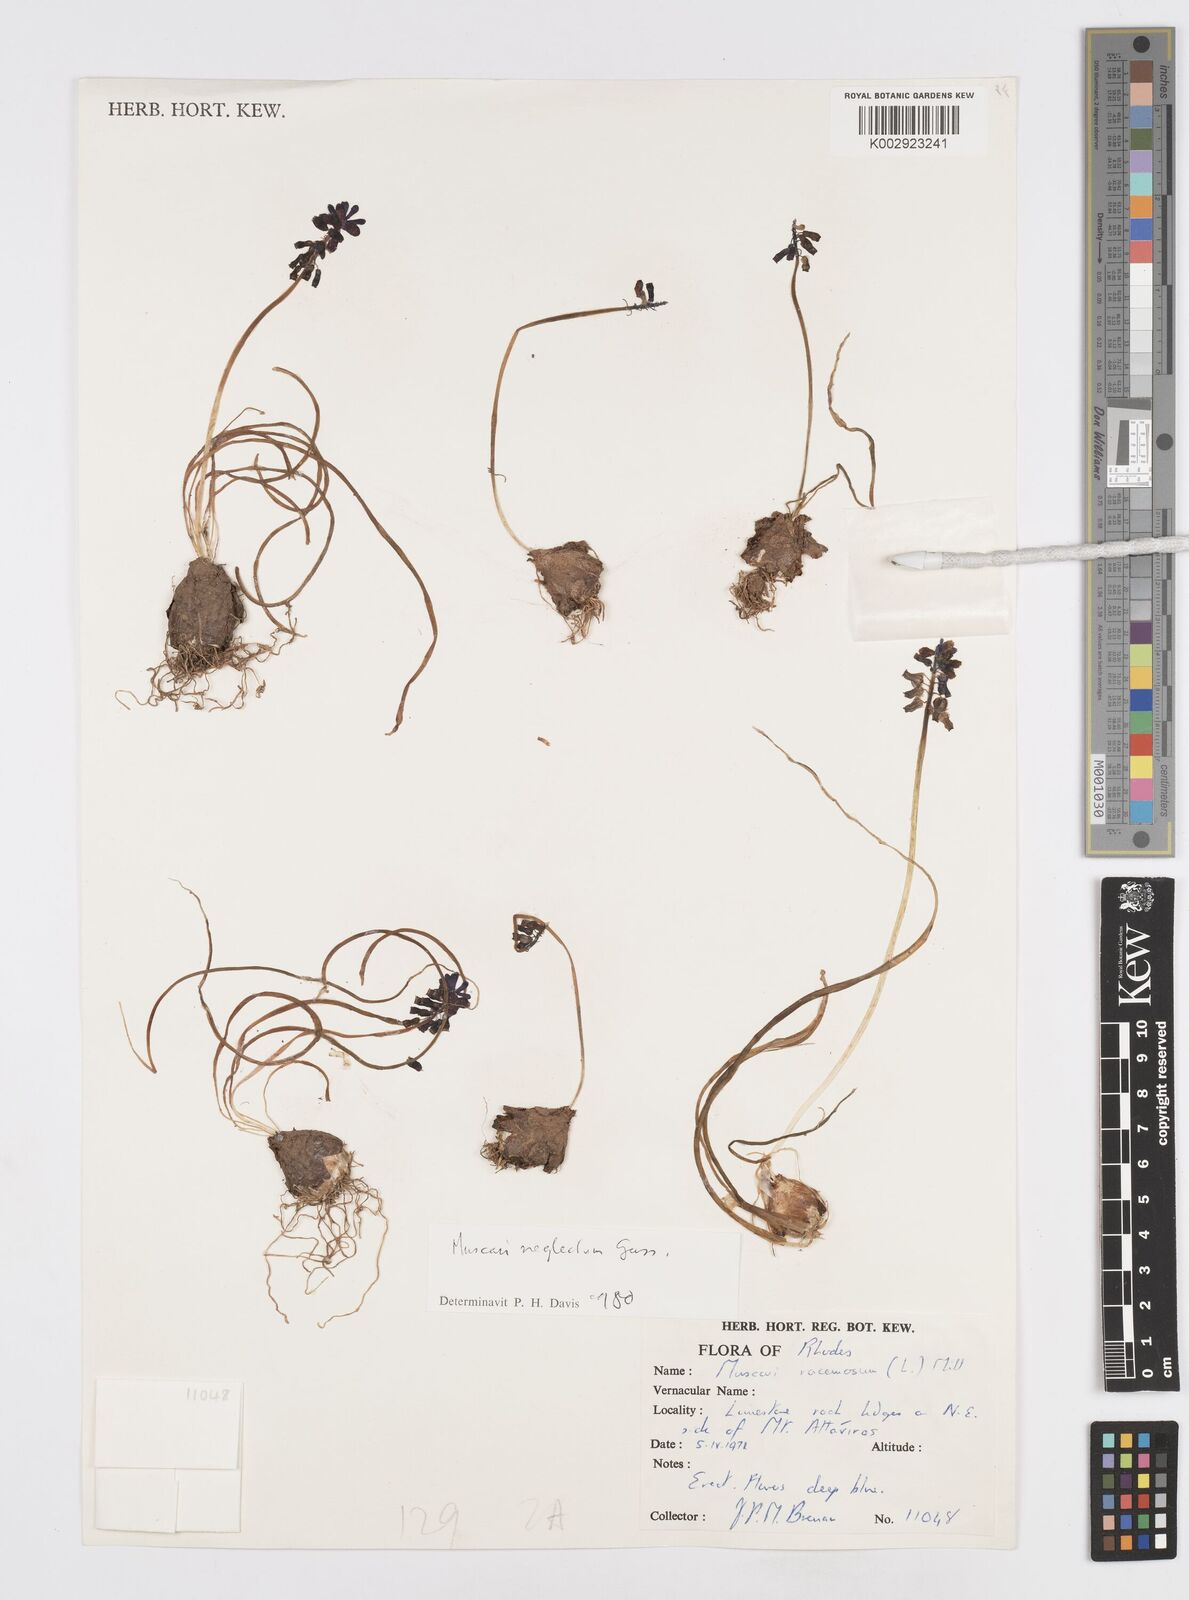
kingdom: Plantae
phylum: Tracheophyta
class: Liliopsida
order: Asparagales
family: Asparagaceae
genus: Muscari
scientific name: Muscari neglectum
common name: Grape-hyacinth
